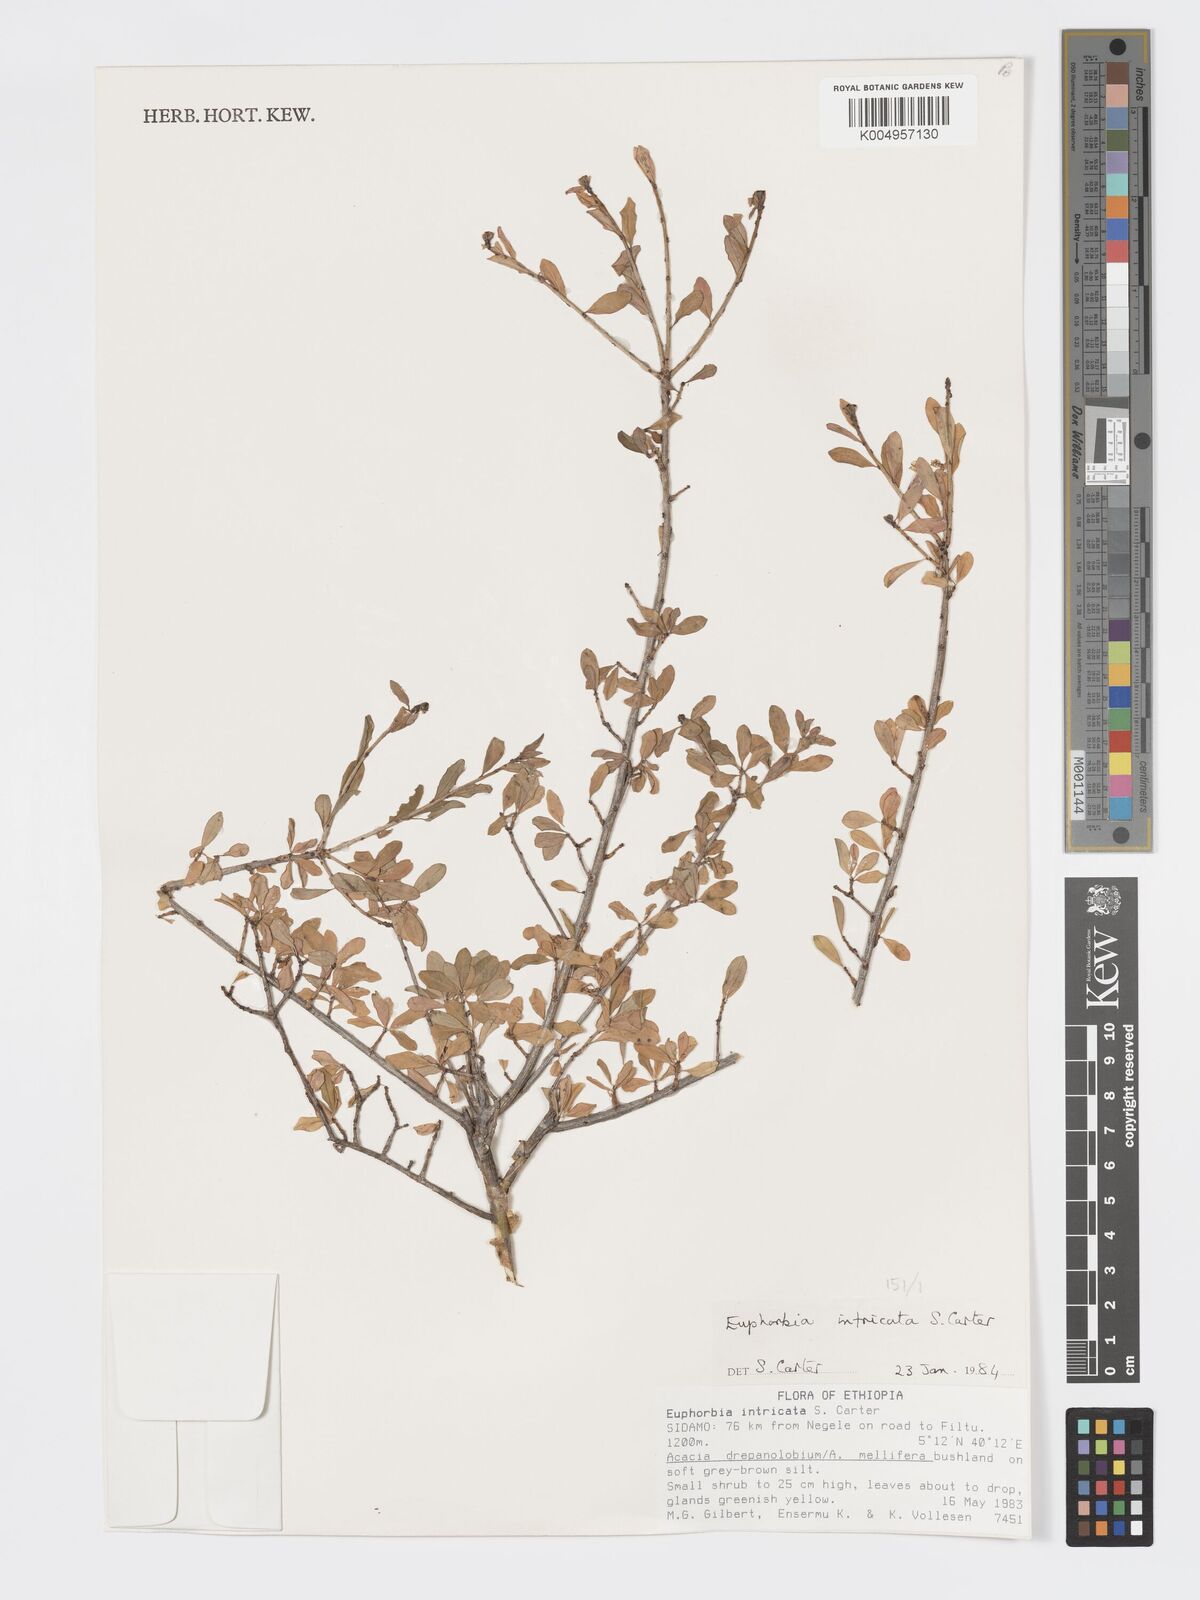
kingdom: Plantae
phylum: Tracheophyta
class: Magnoliopsida
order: Malpighiales
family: Euphorbiaceae
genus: Euphorbia
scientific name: Euphorbia intricata
